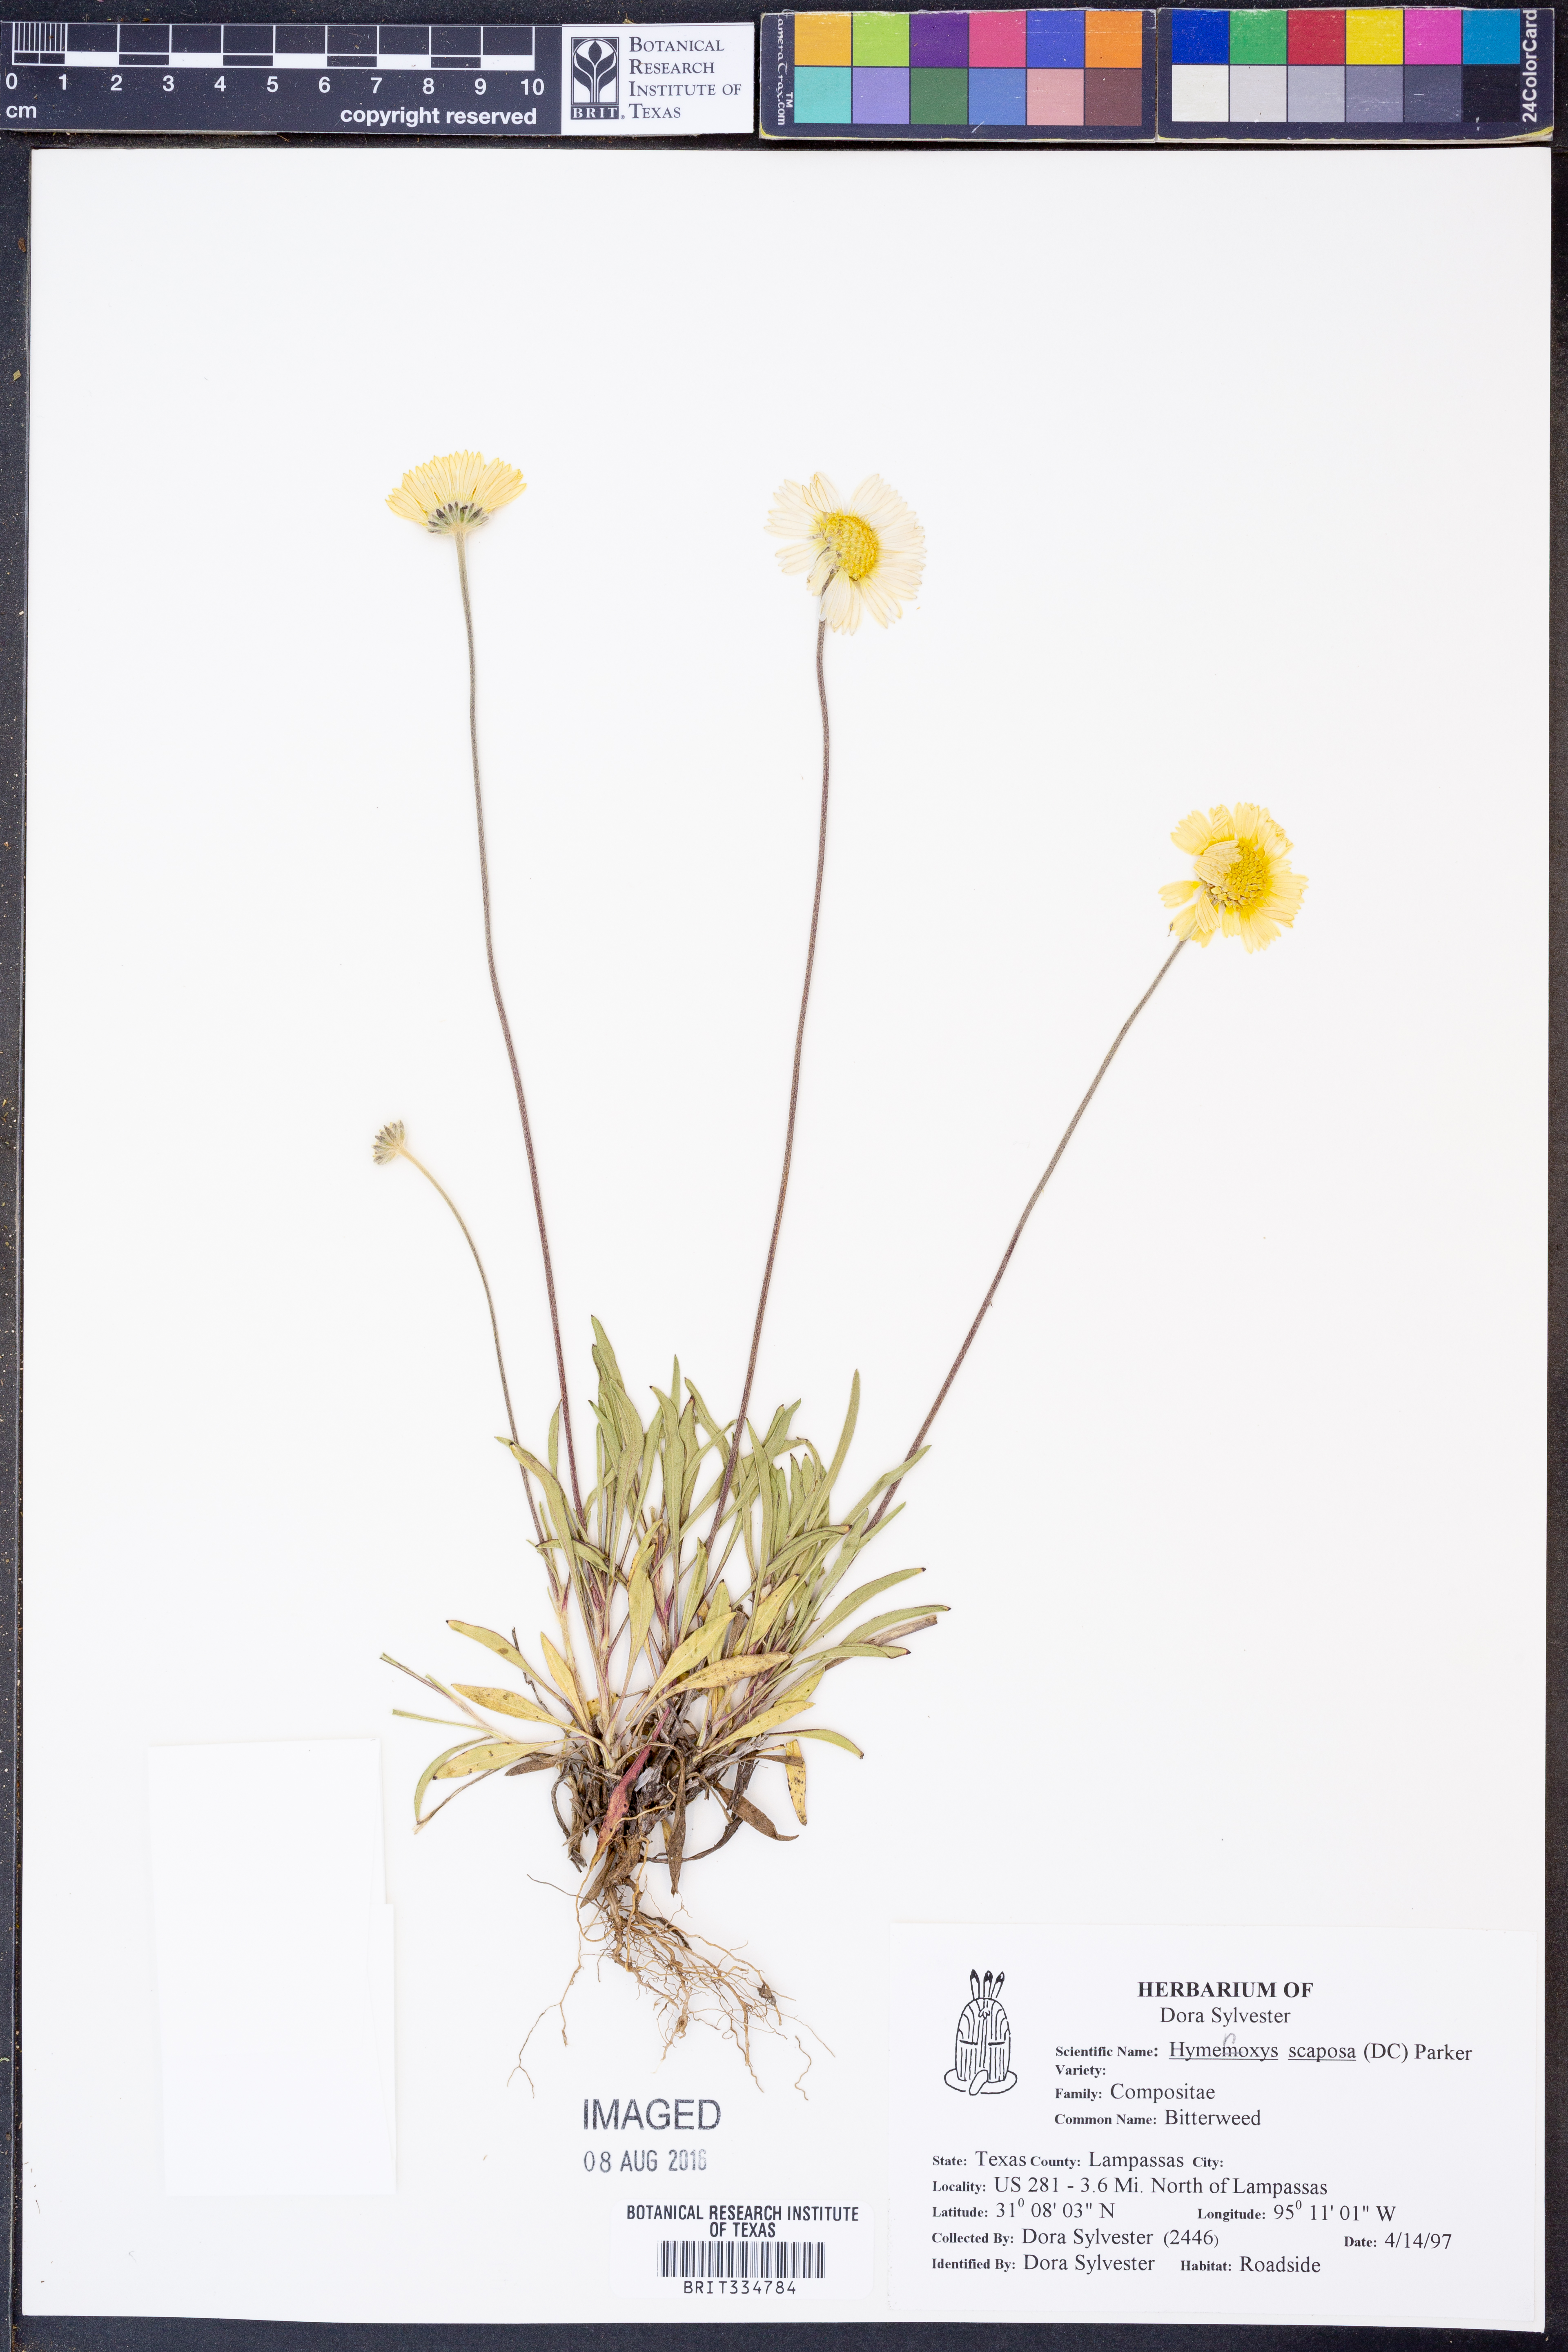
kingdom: Plantae
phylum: Tracheophyta
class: Magnoliopsida
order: Asterales
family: Asteraceae
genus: Tetraneuris
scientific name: Tetraneuris scaposa
